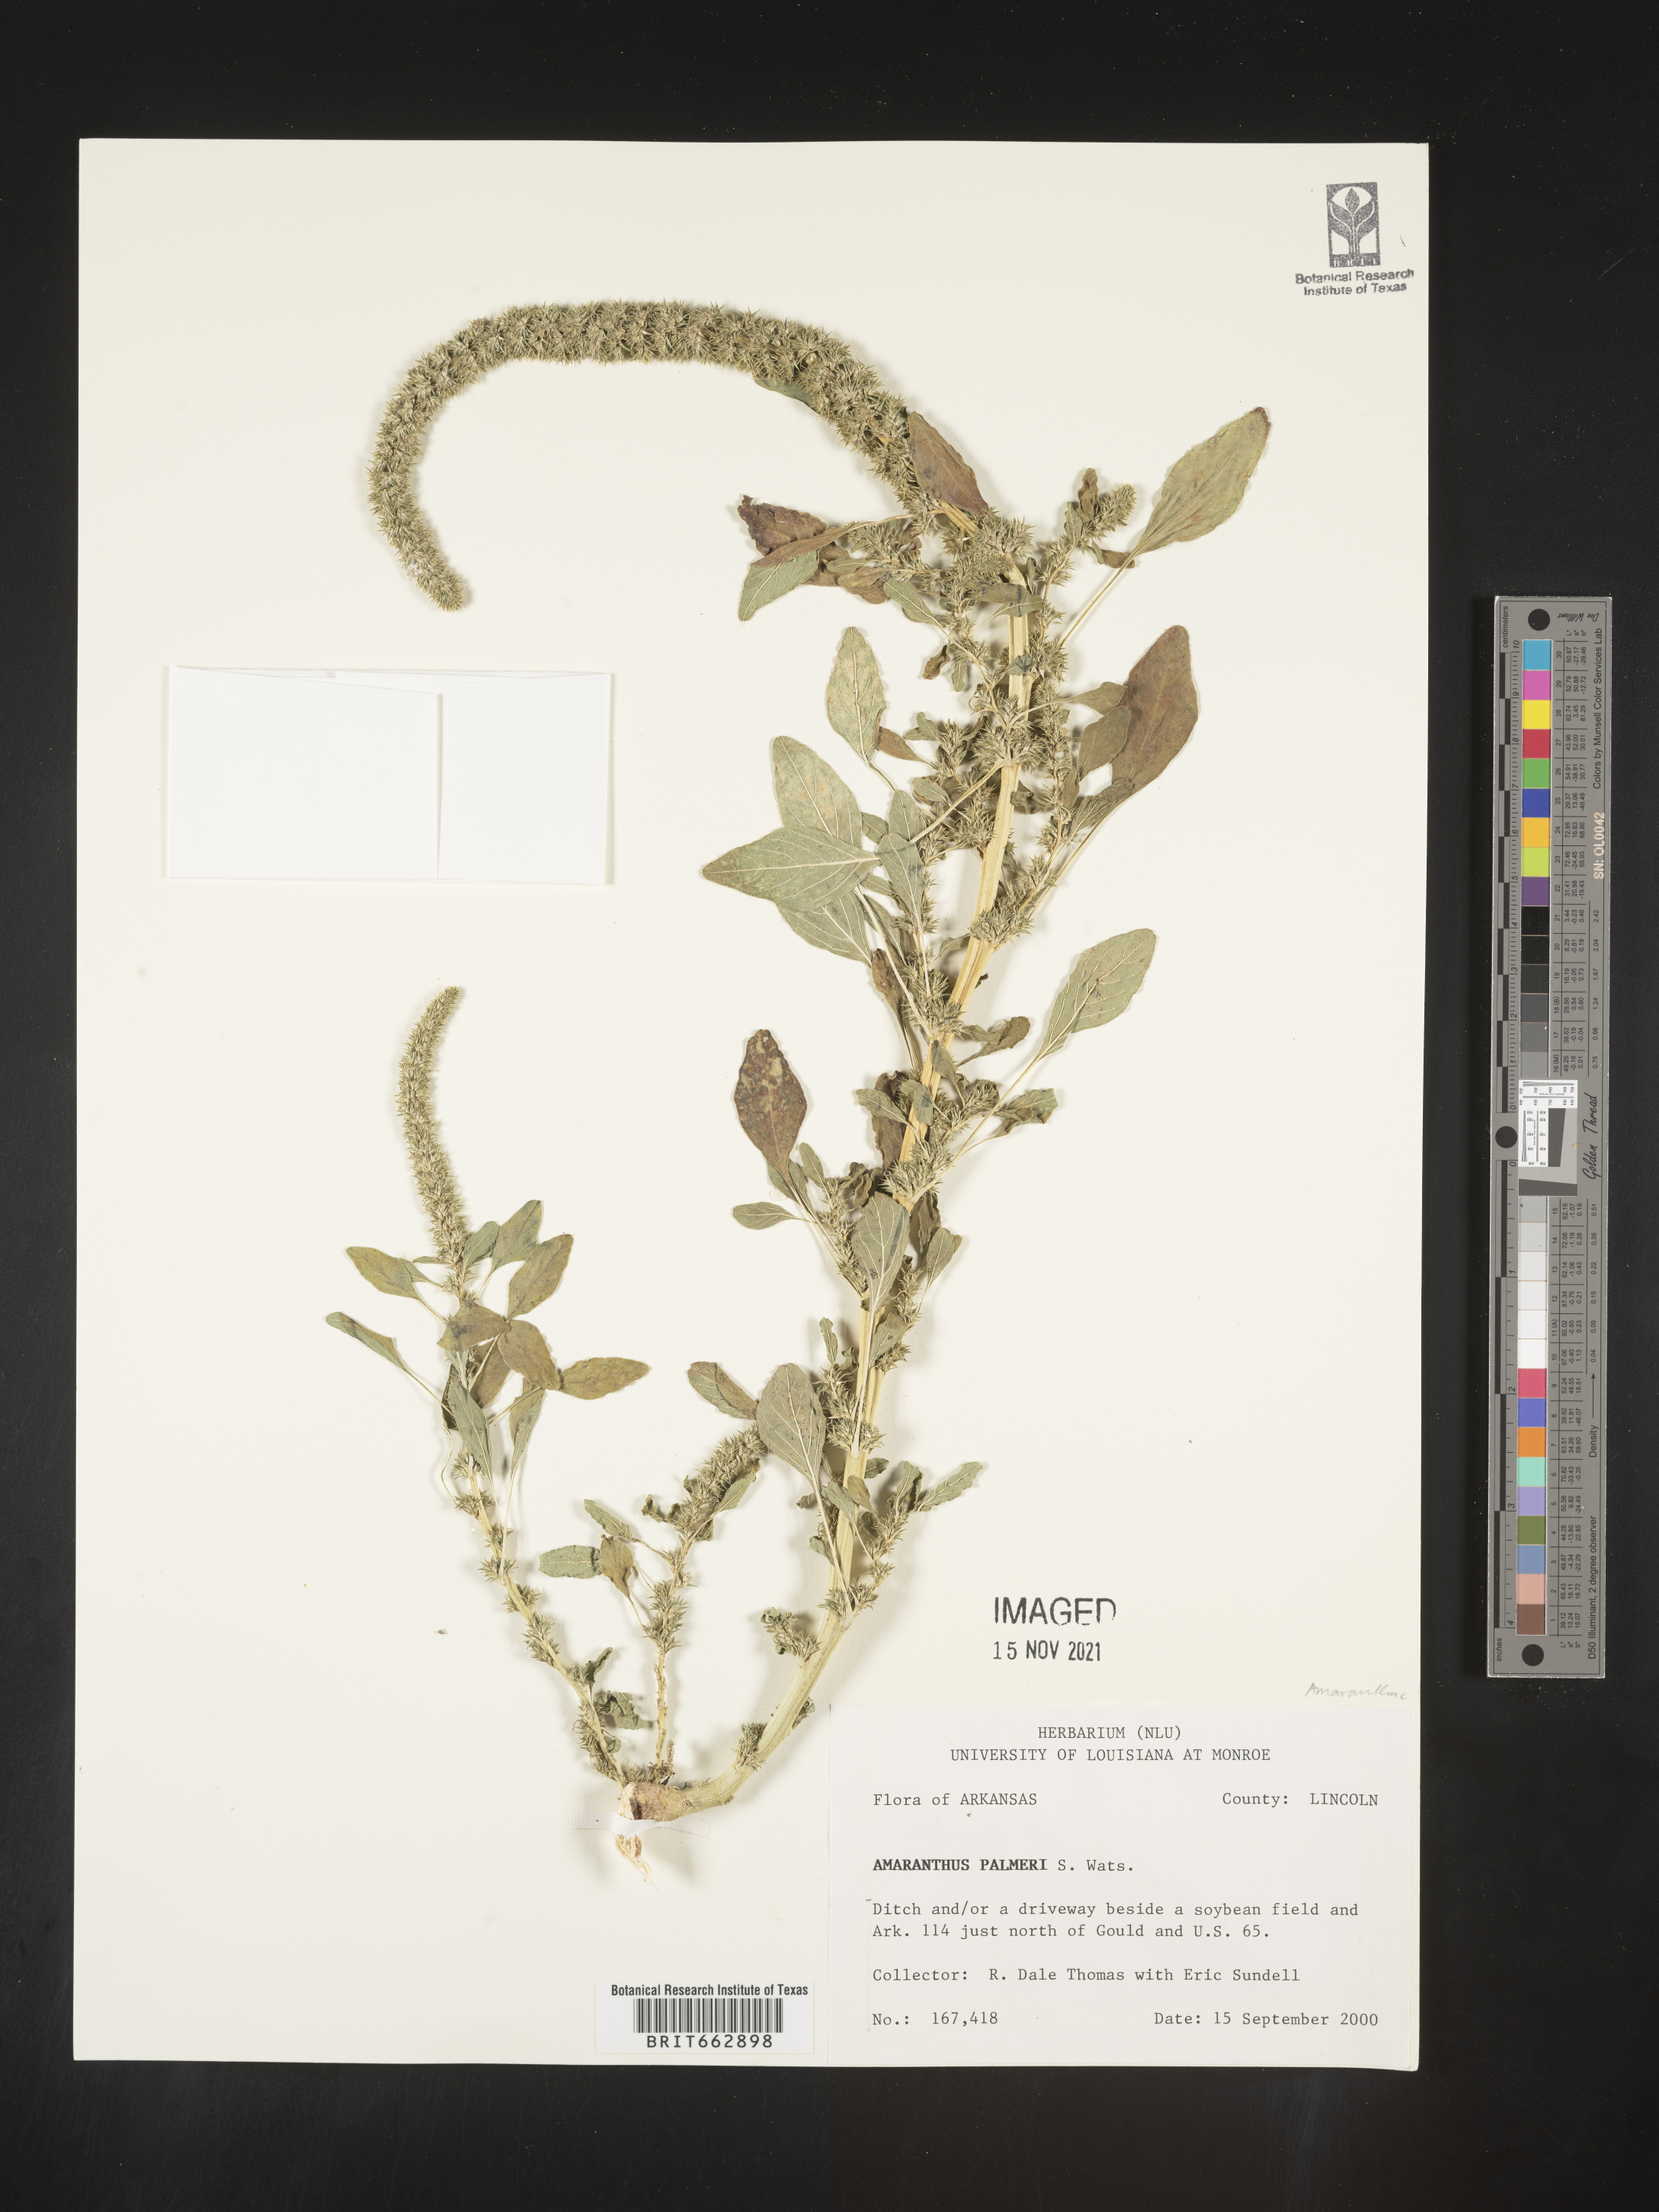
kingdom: Plantae
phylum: Tracheophyta
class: Magnoliopsida
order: Caryophyllales
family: Amaranthaceae
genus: Amaranthus
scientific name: Amaranthus palmeri
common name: Dioecious amaranth
